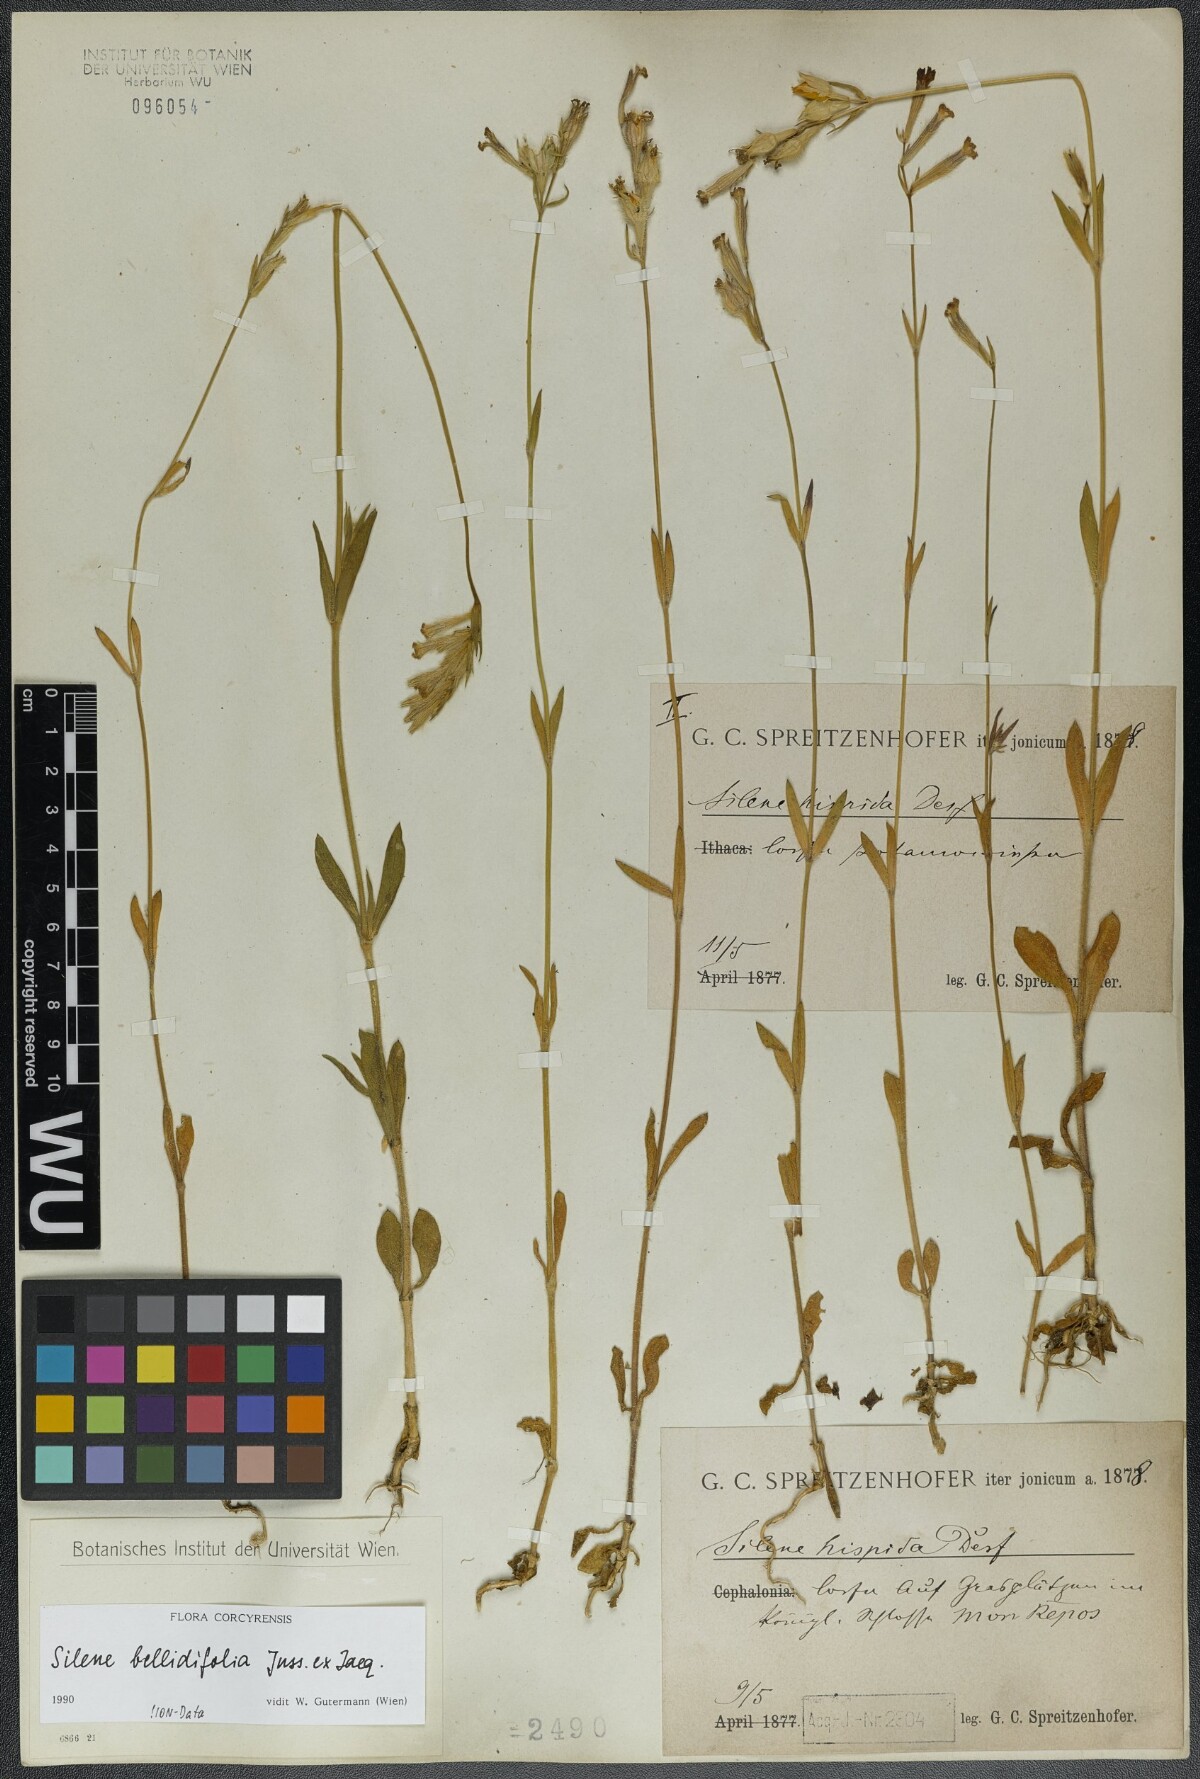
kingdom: Plantae
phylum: Tracheophyta
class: Magnoliopsida
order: Caryophyllales
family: Caryophyllaceae
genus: Silene
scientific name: Silene bellidifolia
